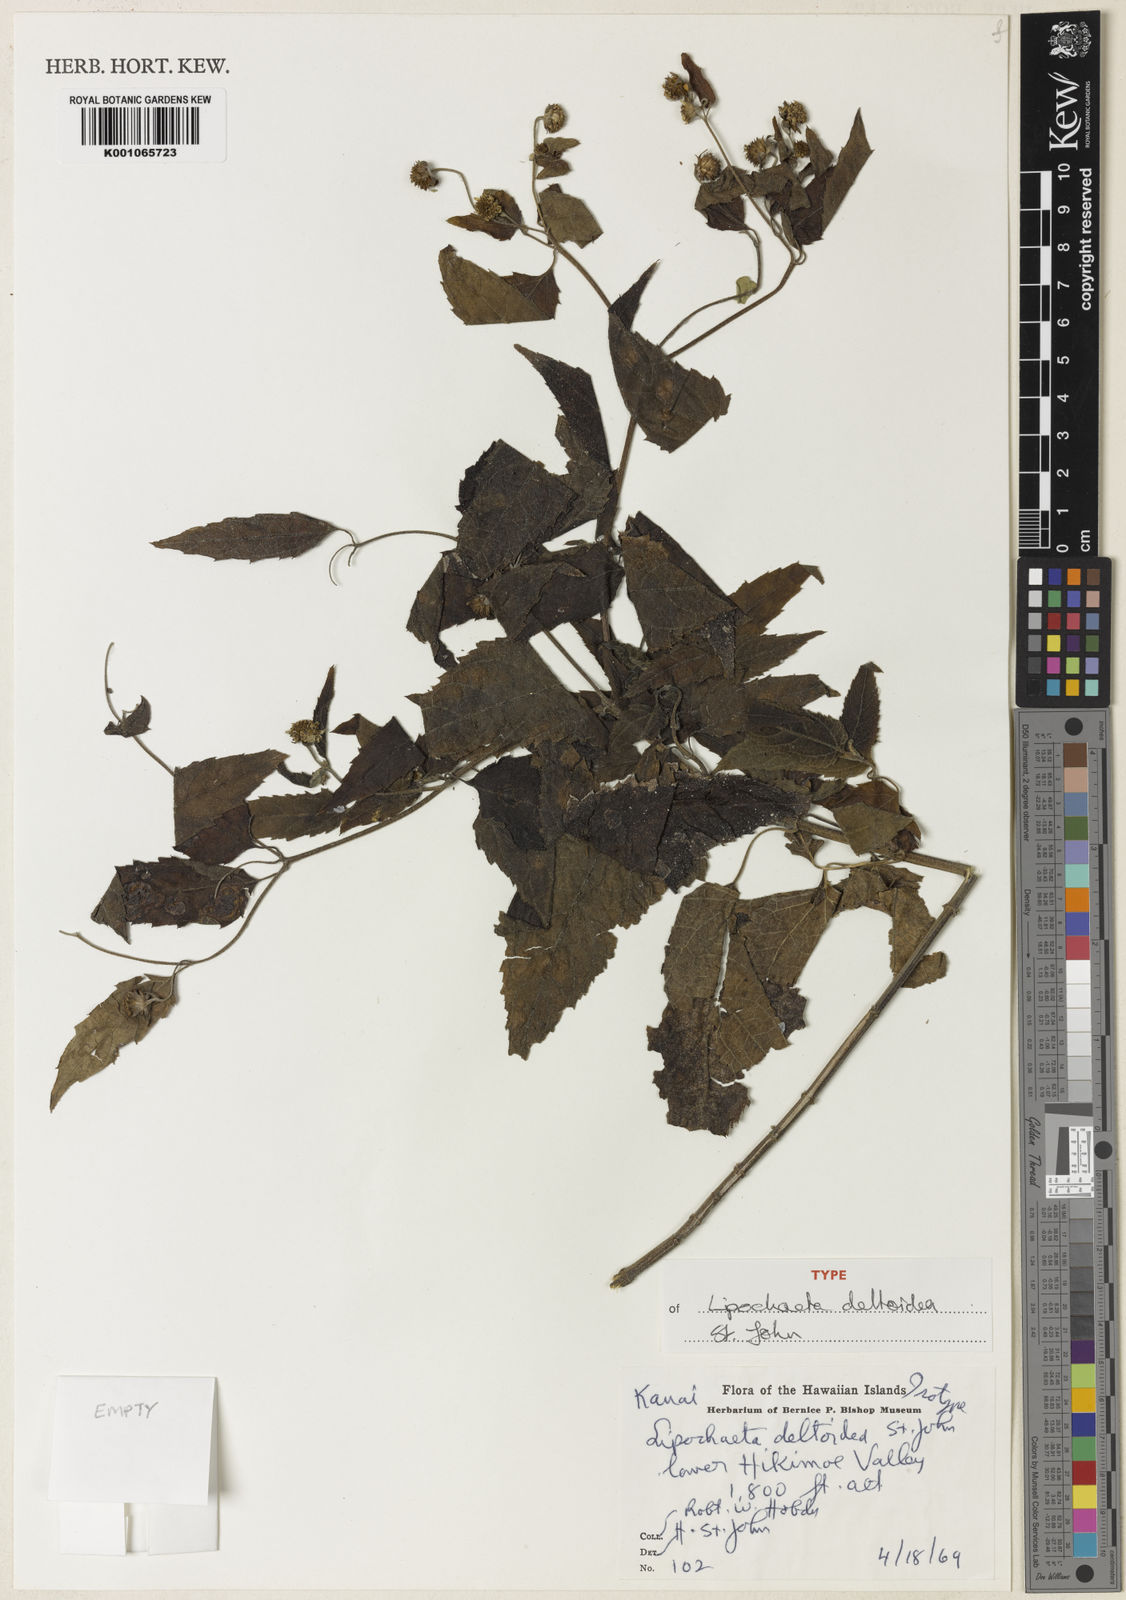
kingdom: Plantae
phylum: Tracheophyta
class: Magnoliopsida
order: Asterales
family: Asteraceae
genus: Lipochaeta
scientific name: Lipochaeta fauriei
